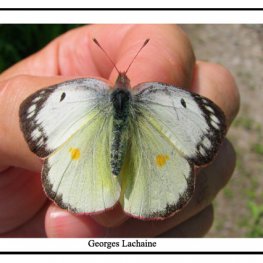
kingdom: Animalia
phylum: Arthropoda
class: Insecta
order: Lepidoptera
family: Pieridae
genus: Colias
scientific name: Colias philodice
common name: Clouded Sulphur
